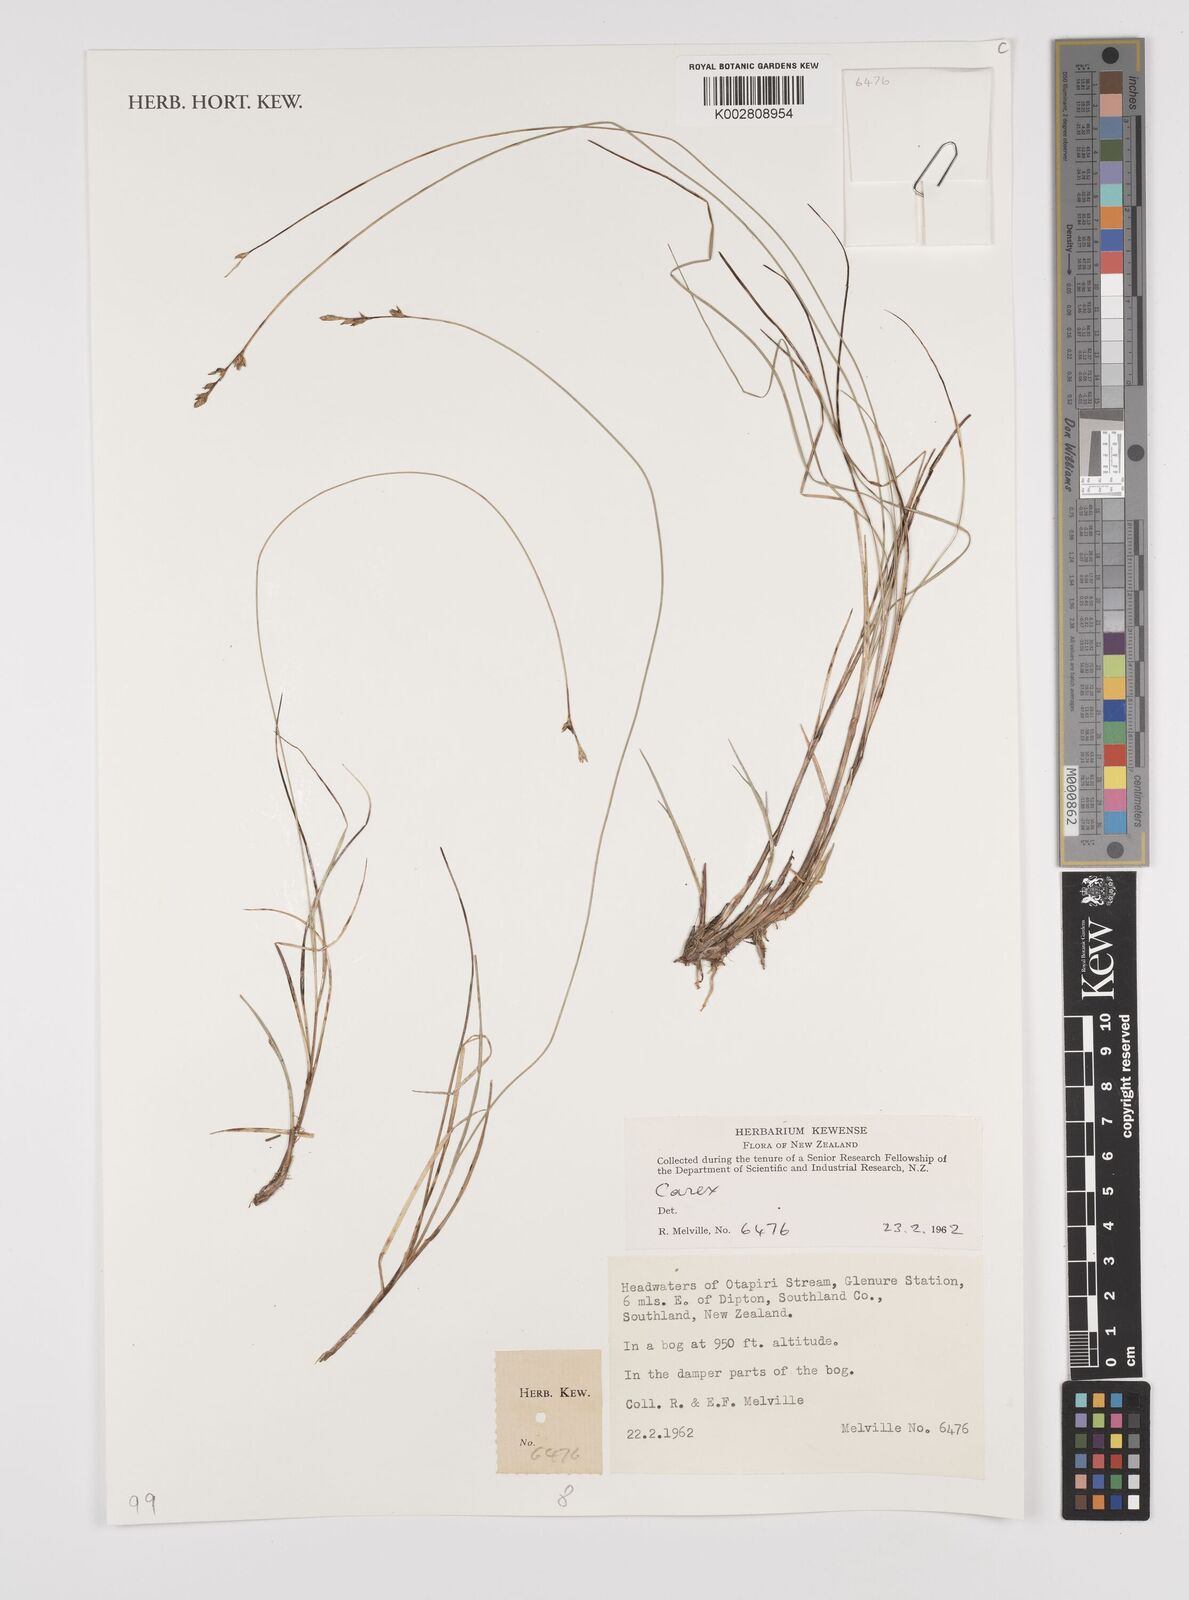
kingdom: Plantae
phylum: Tracheophyta
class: Liliopsida
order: Poales
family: Cyperaceae
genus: Carex
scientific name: Carex
